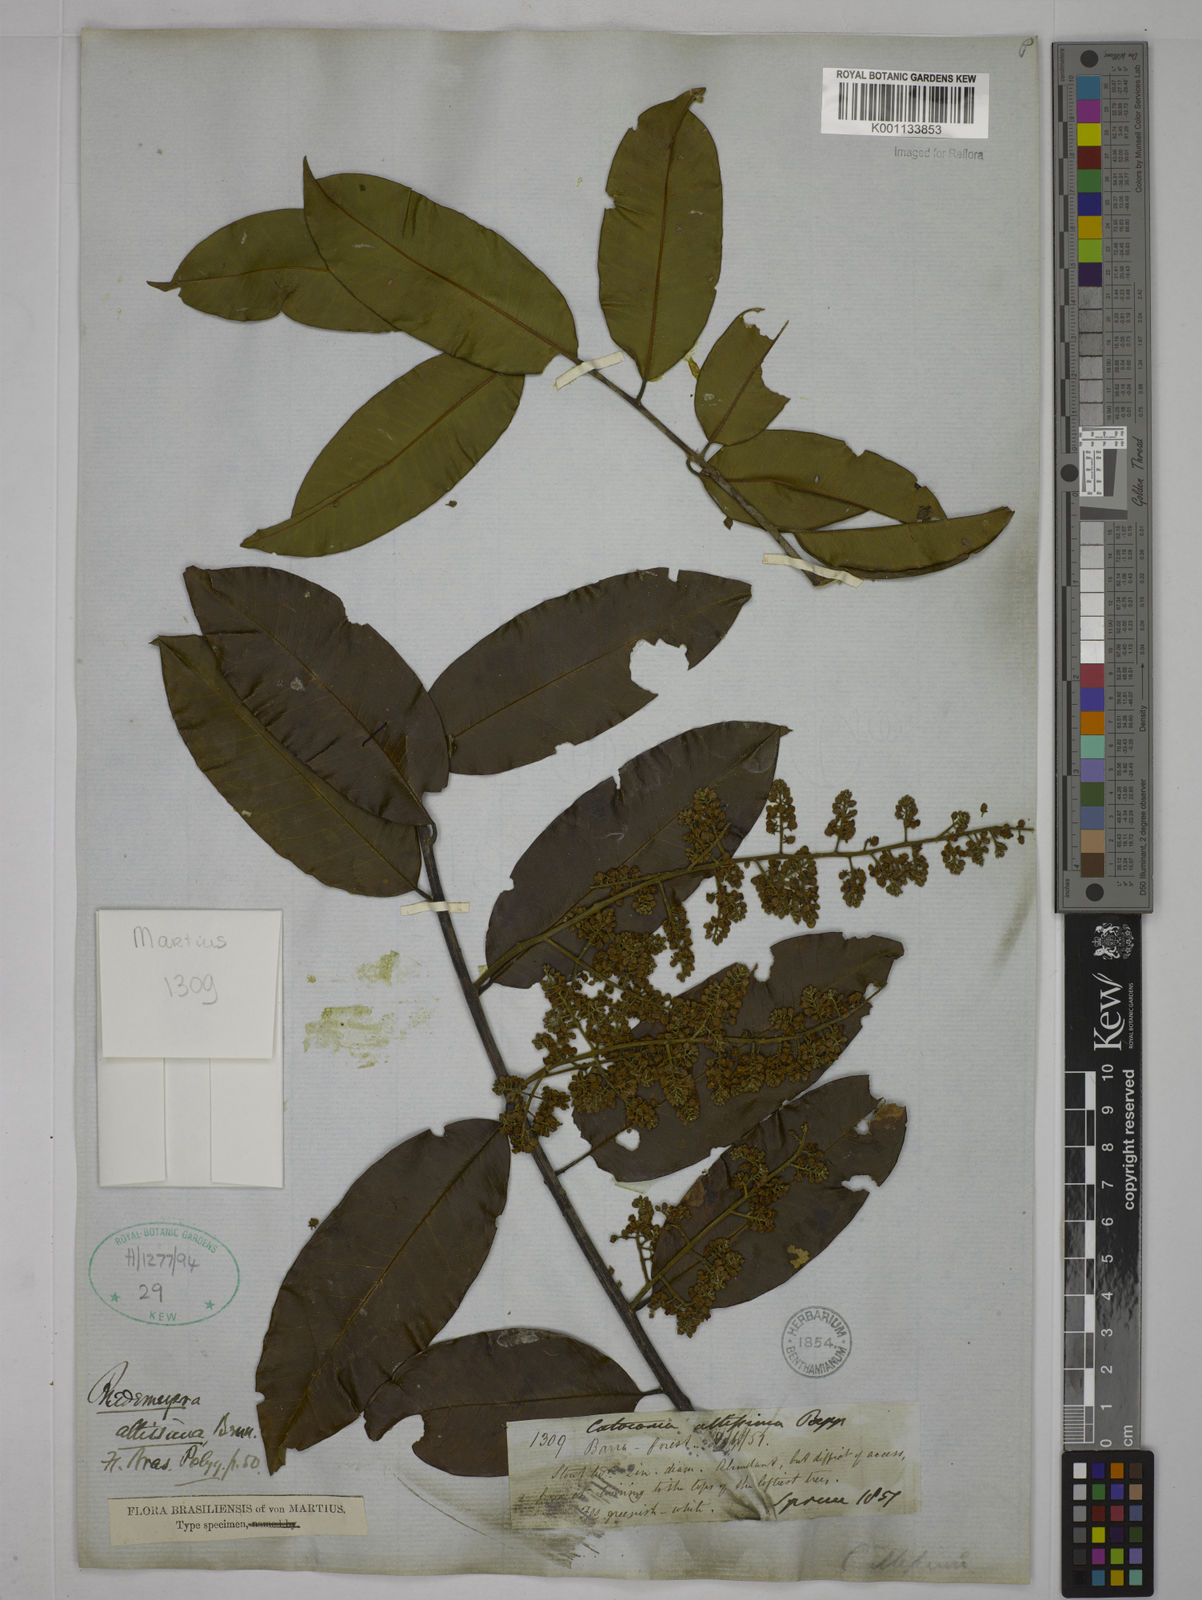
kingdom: Plantae
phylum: Tracheophyta
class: Magnoliopsida
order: Fabales
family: Polygalaceae
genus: Bredemeyera
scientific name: Bredemeyera divaricata
